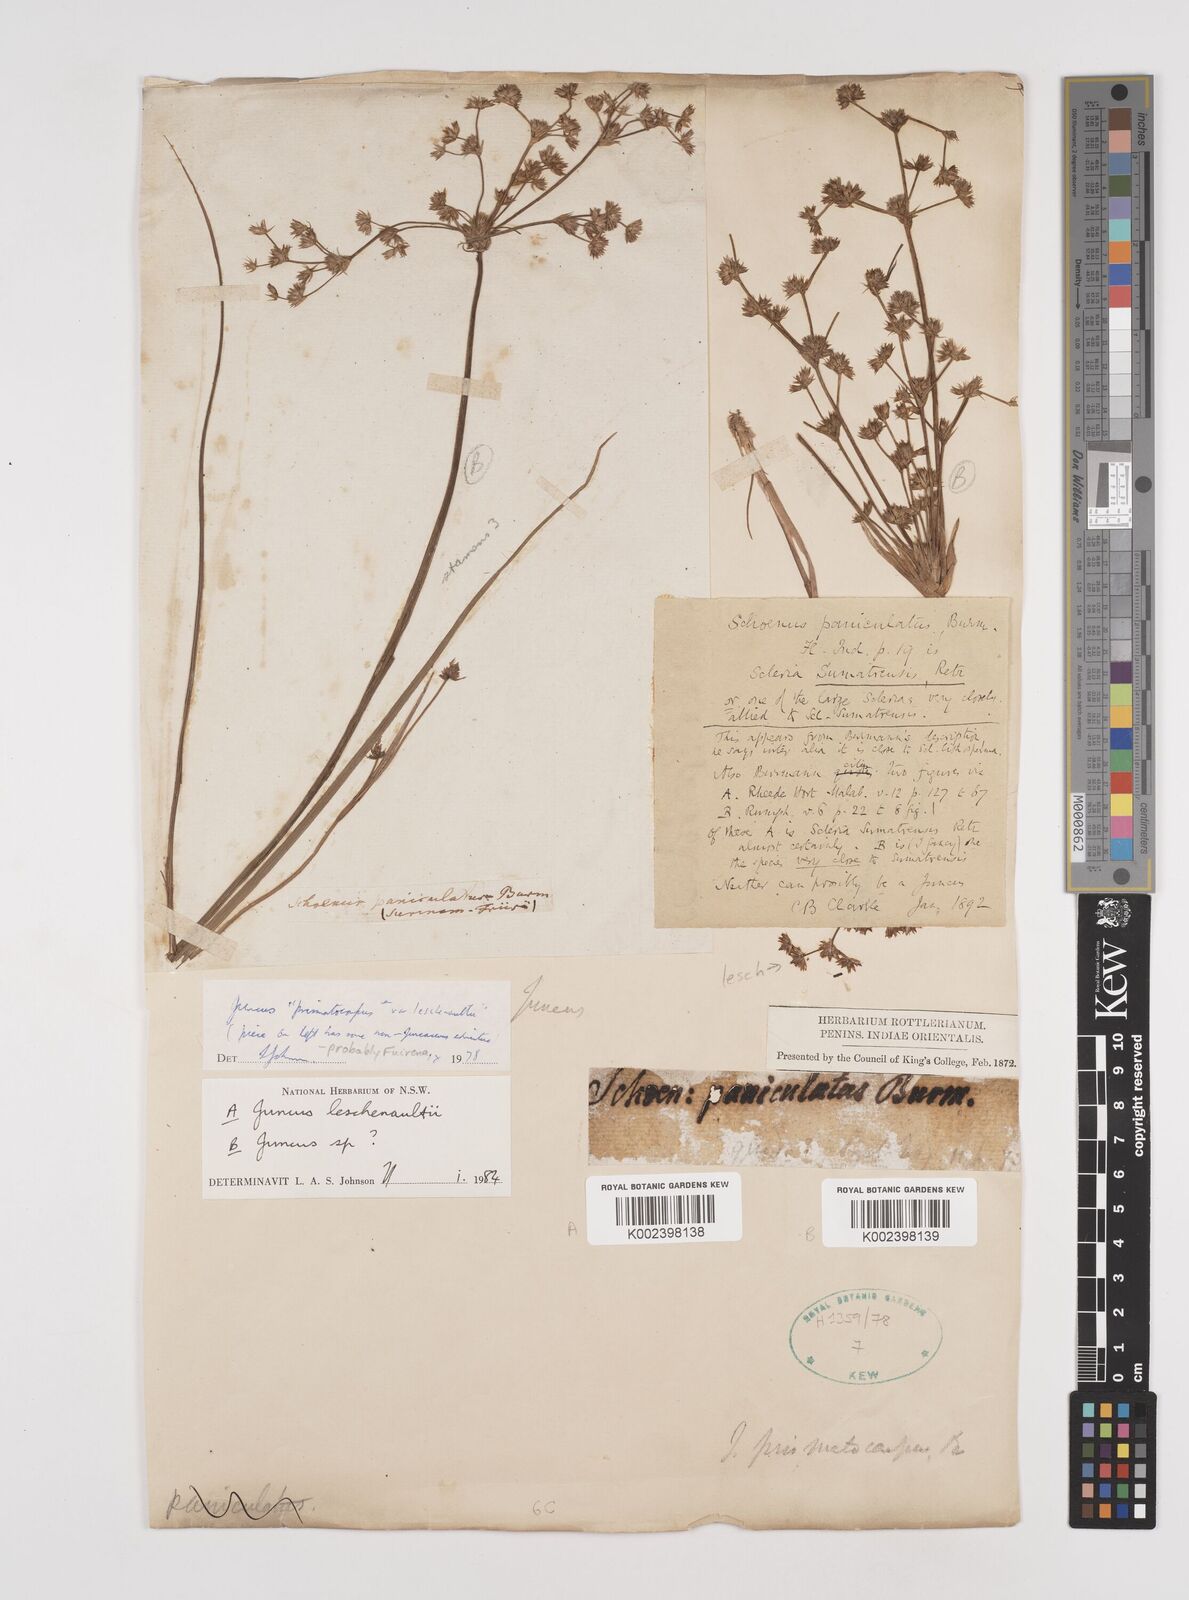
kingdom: Plantae
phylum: Tracheophyta
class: Liliopsida
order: Poales
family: Juncaceae
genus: Juncus
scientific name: Juncus prismatocarpus
